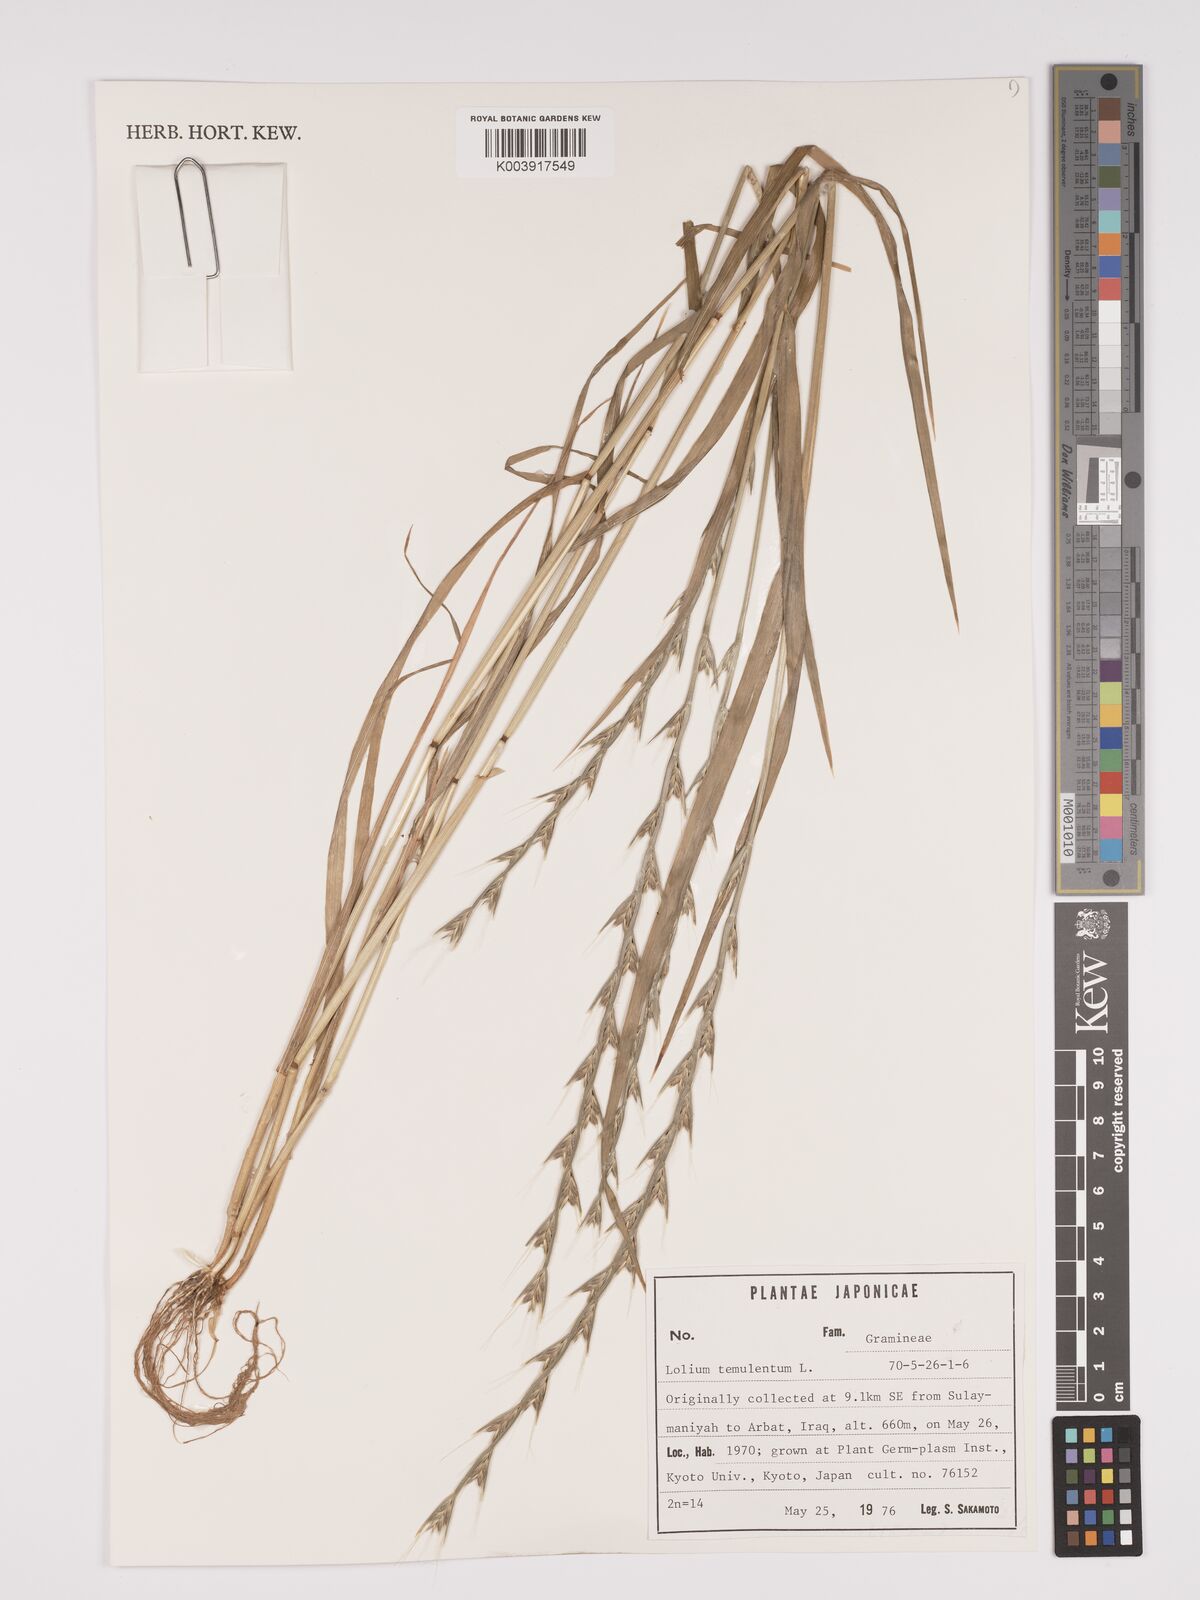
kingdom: Plantae
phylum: Tracheophyta
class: Liliopsida
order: Poales
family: Poaceae
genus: Lolium
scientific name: Lolium temulentum
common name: Darnel
